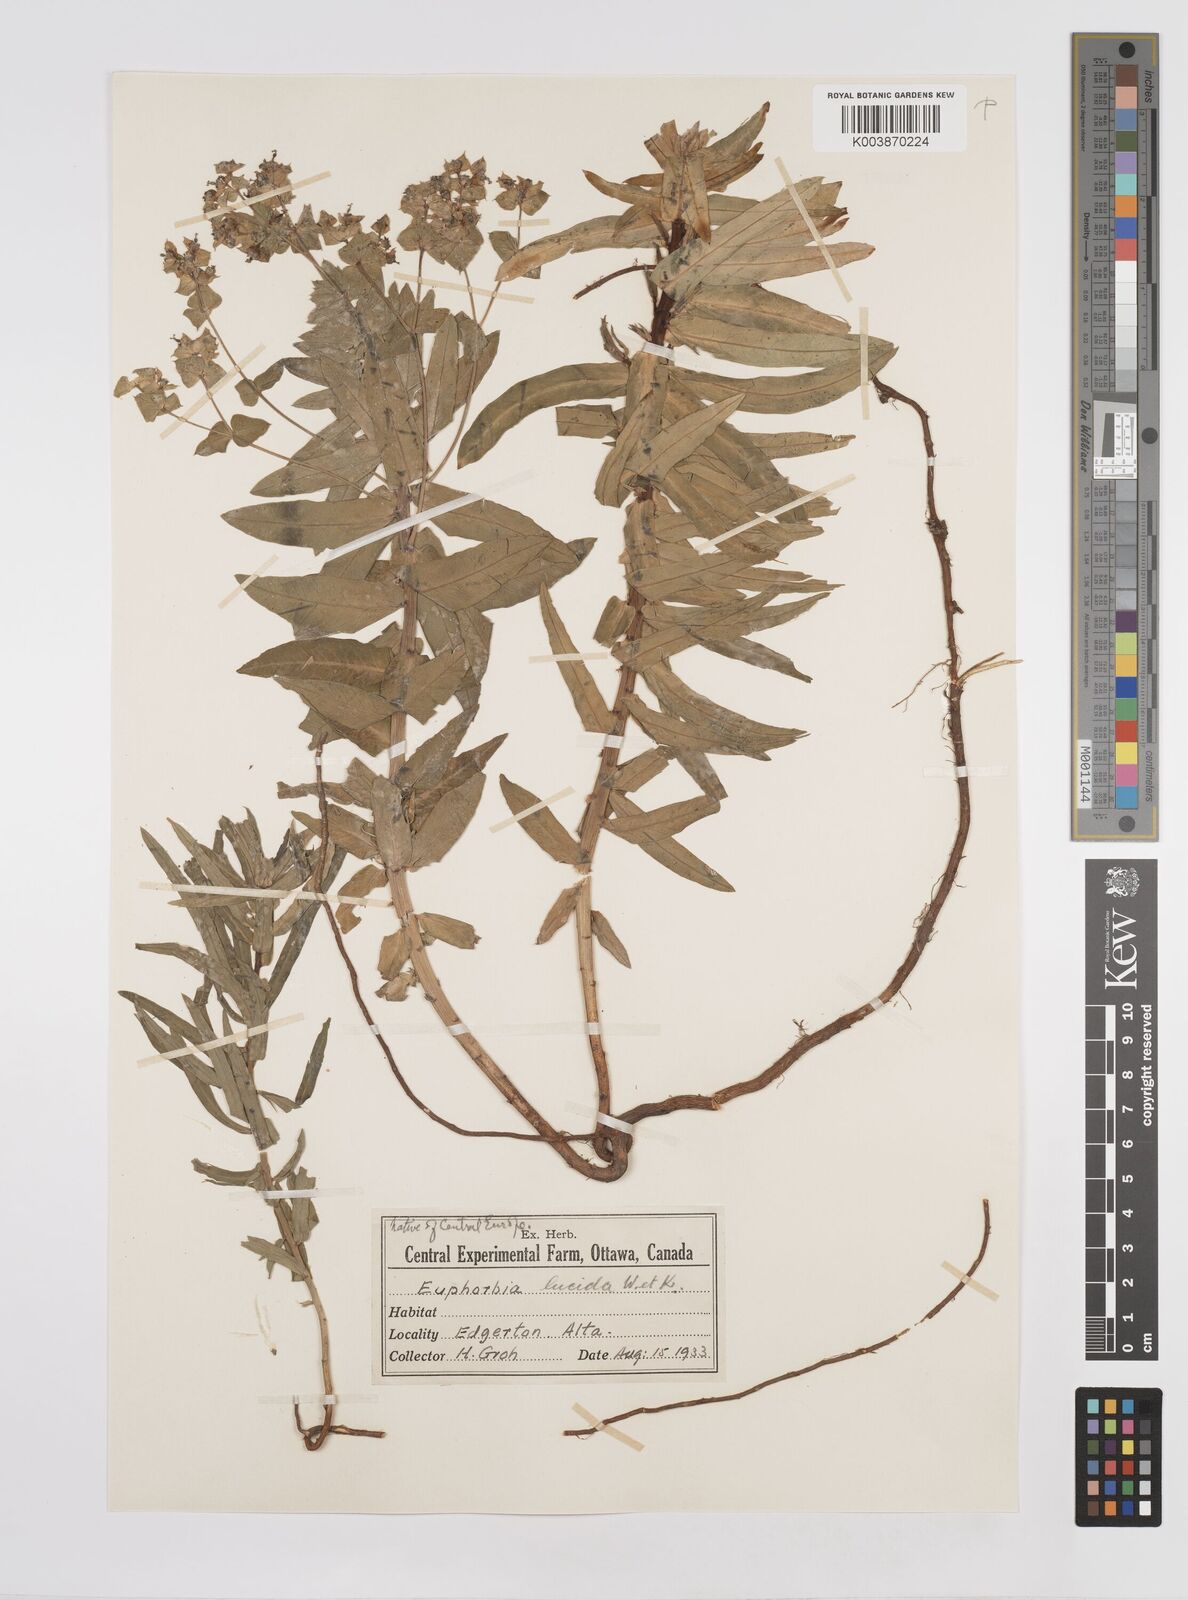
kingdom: Plantae
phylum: Tracheophyta
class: Magnoliopsida
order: Malpighiales
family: Euphorbiaceae
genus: Euphorbia
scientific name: Euphorbia lucida
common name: Shining spurge
